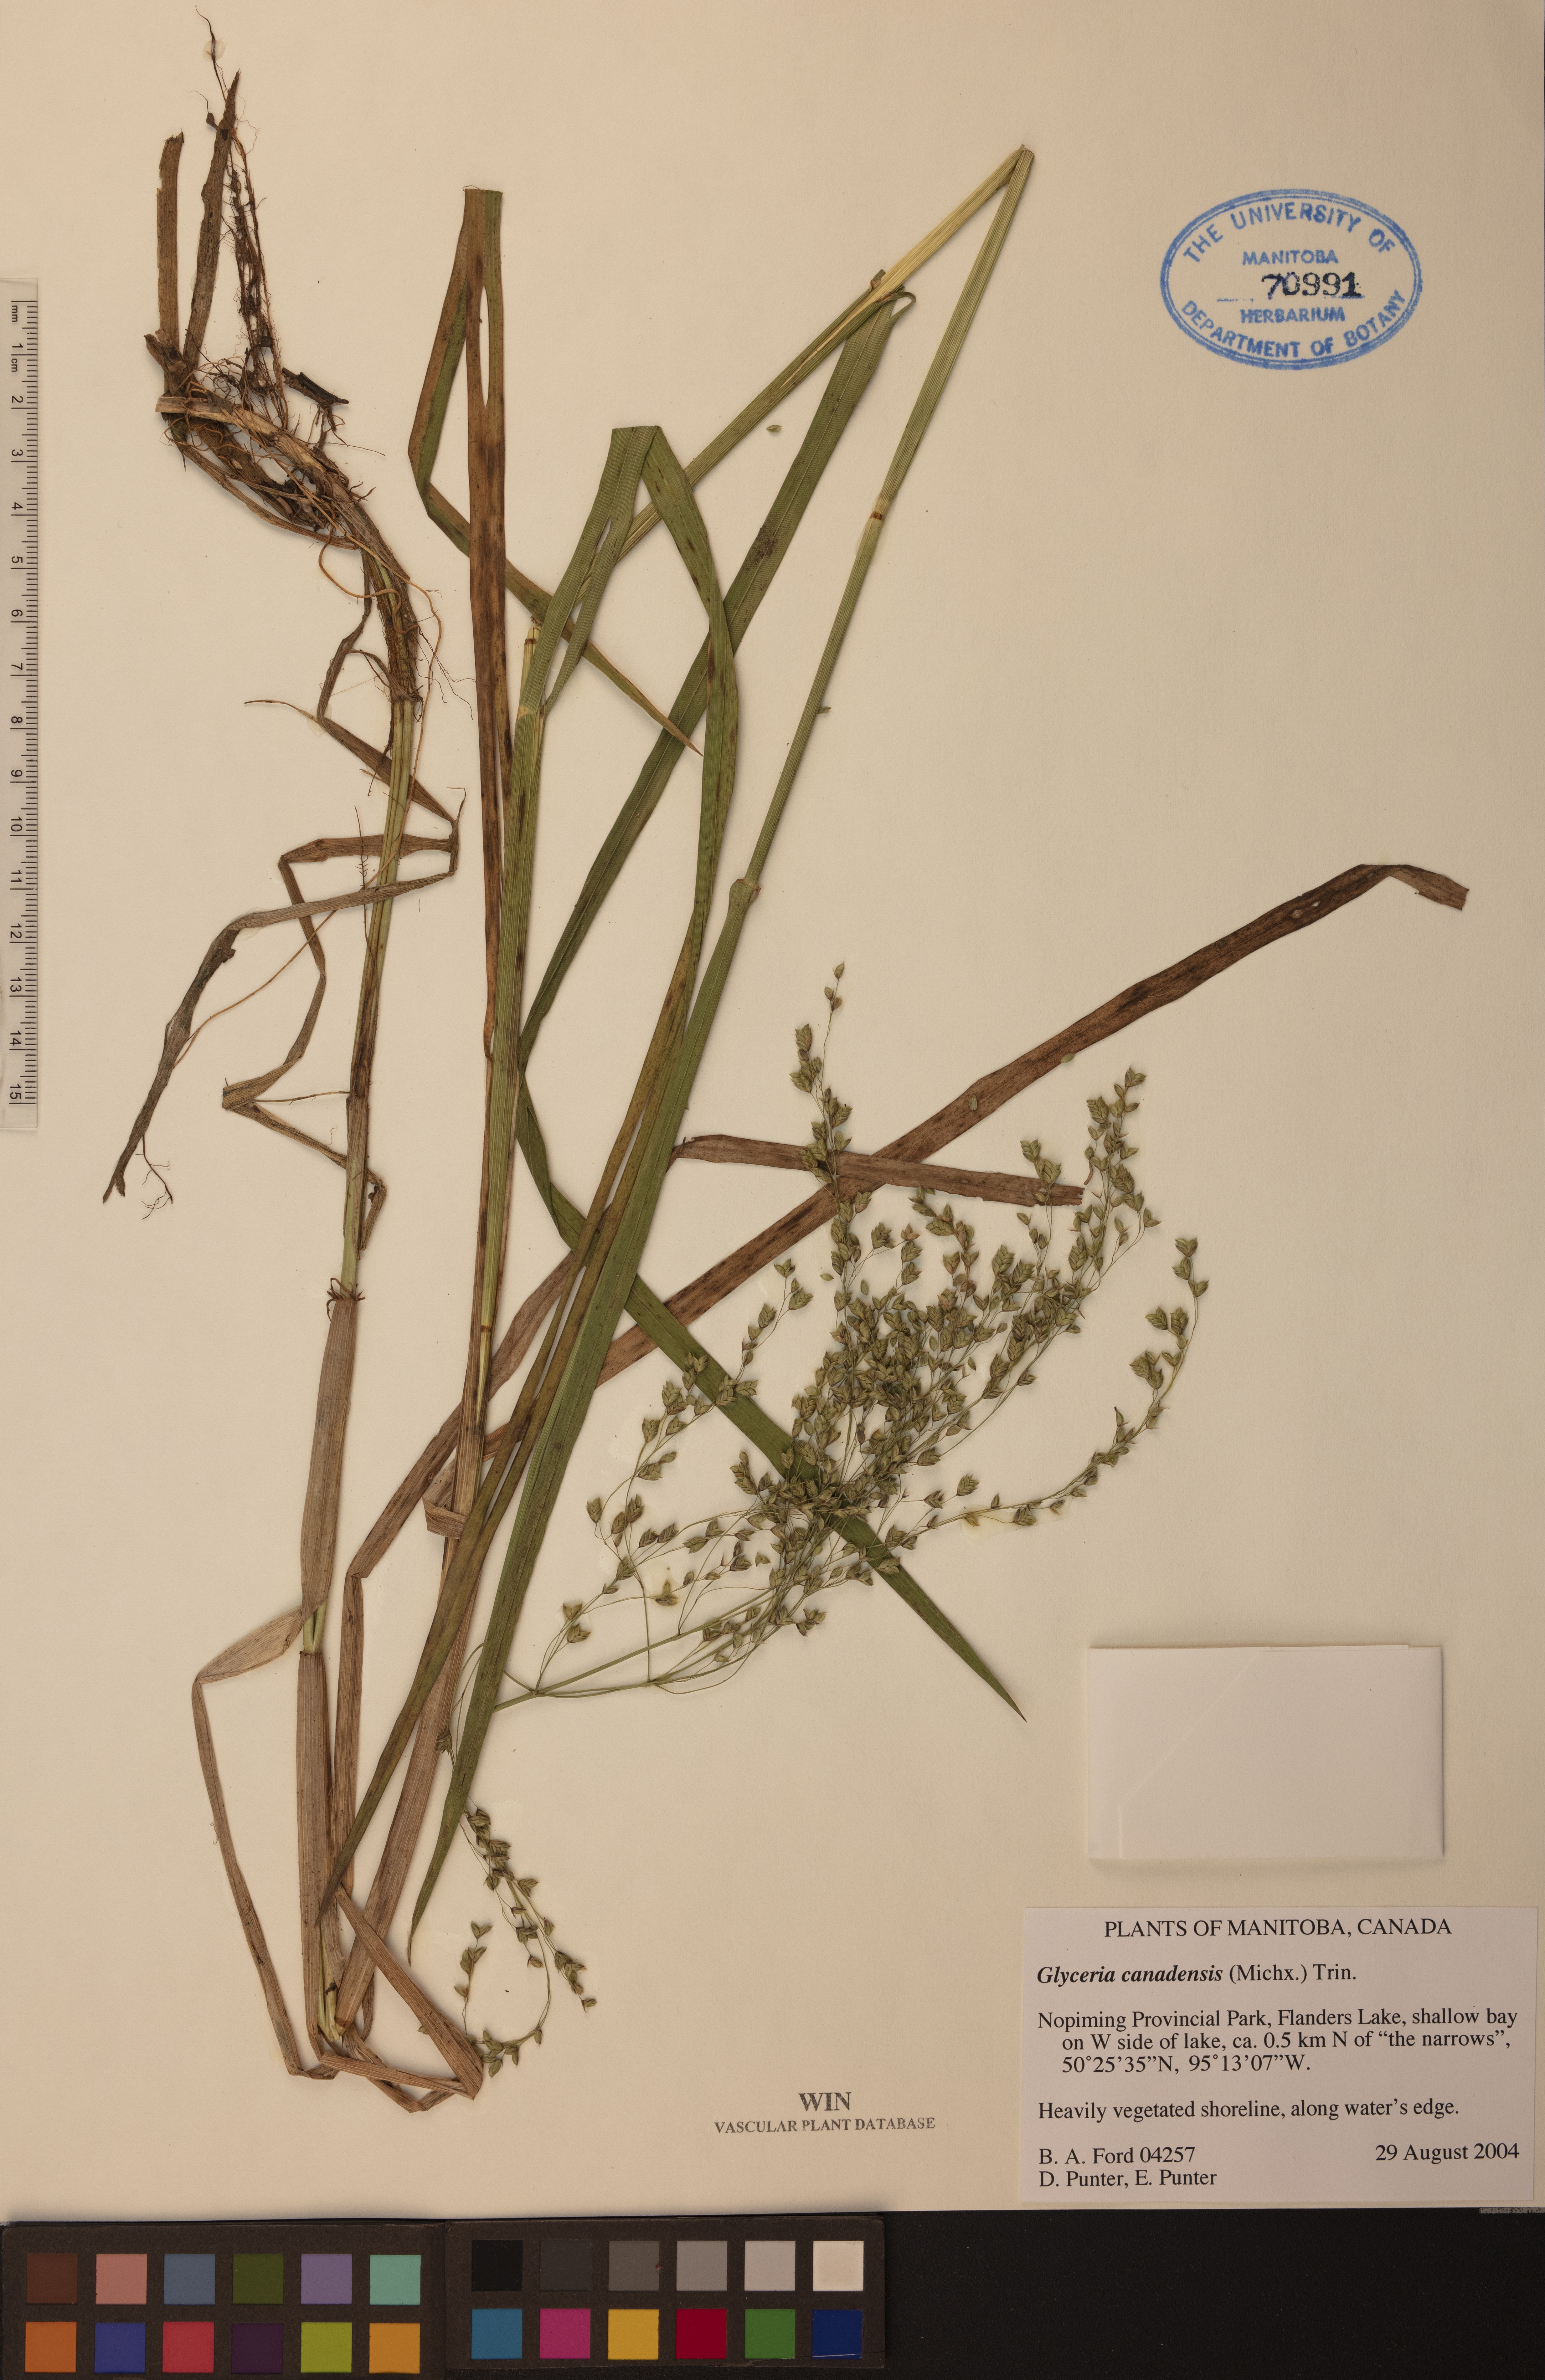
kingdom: Plantae
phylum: Tracheophyta
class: Liliopsida
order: Poales
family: Poaceae
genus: Glyceria
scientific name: Glyceria canadensis
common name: Canada mannagrass
